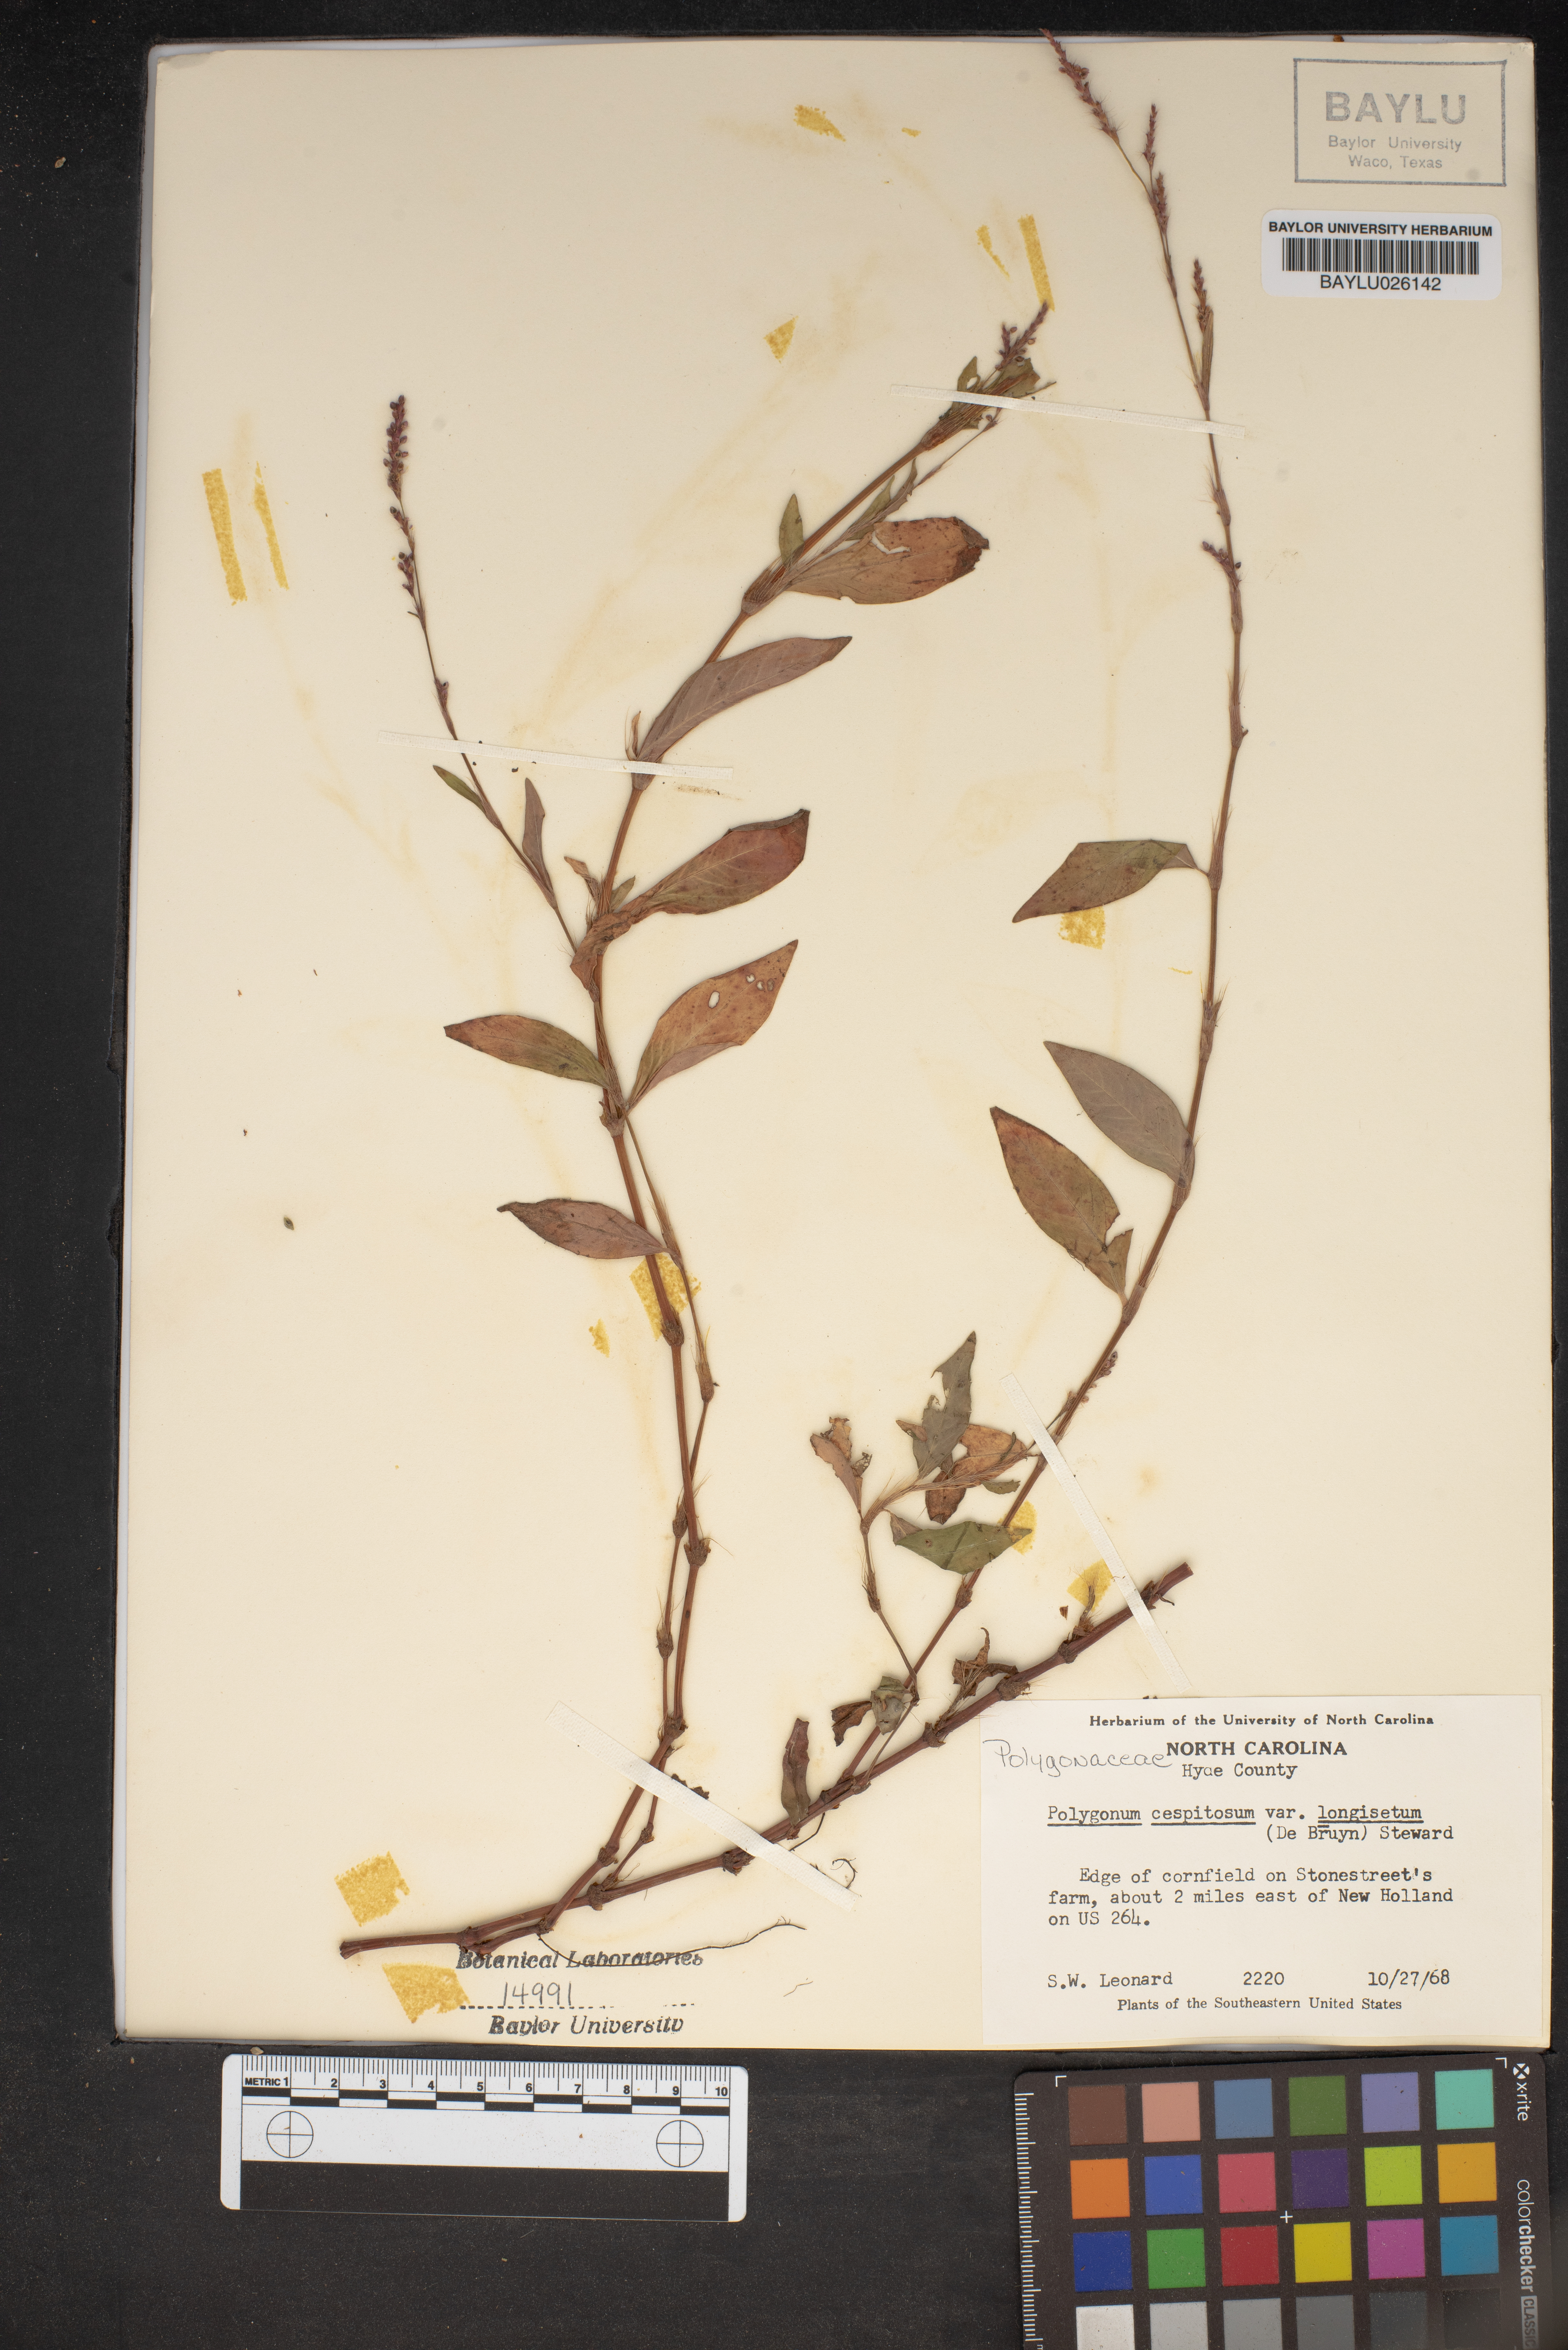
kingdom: Plantae
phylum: Tracheophyta
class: Magnoliopsida
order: Caryophyllales
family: Polygonaceae
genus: Persicaria
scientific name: Persicaria longiseta
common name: Bristly lady's-thumb
